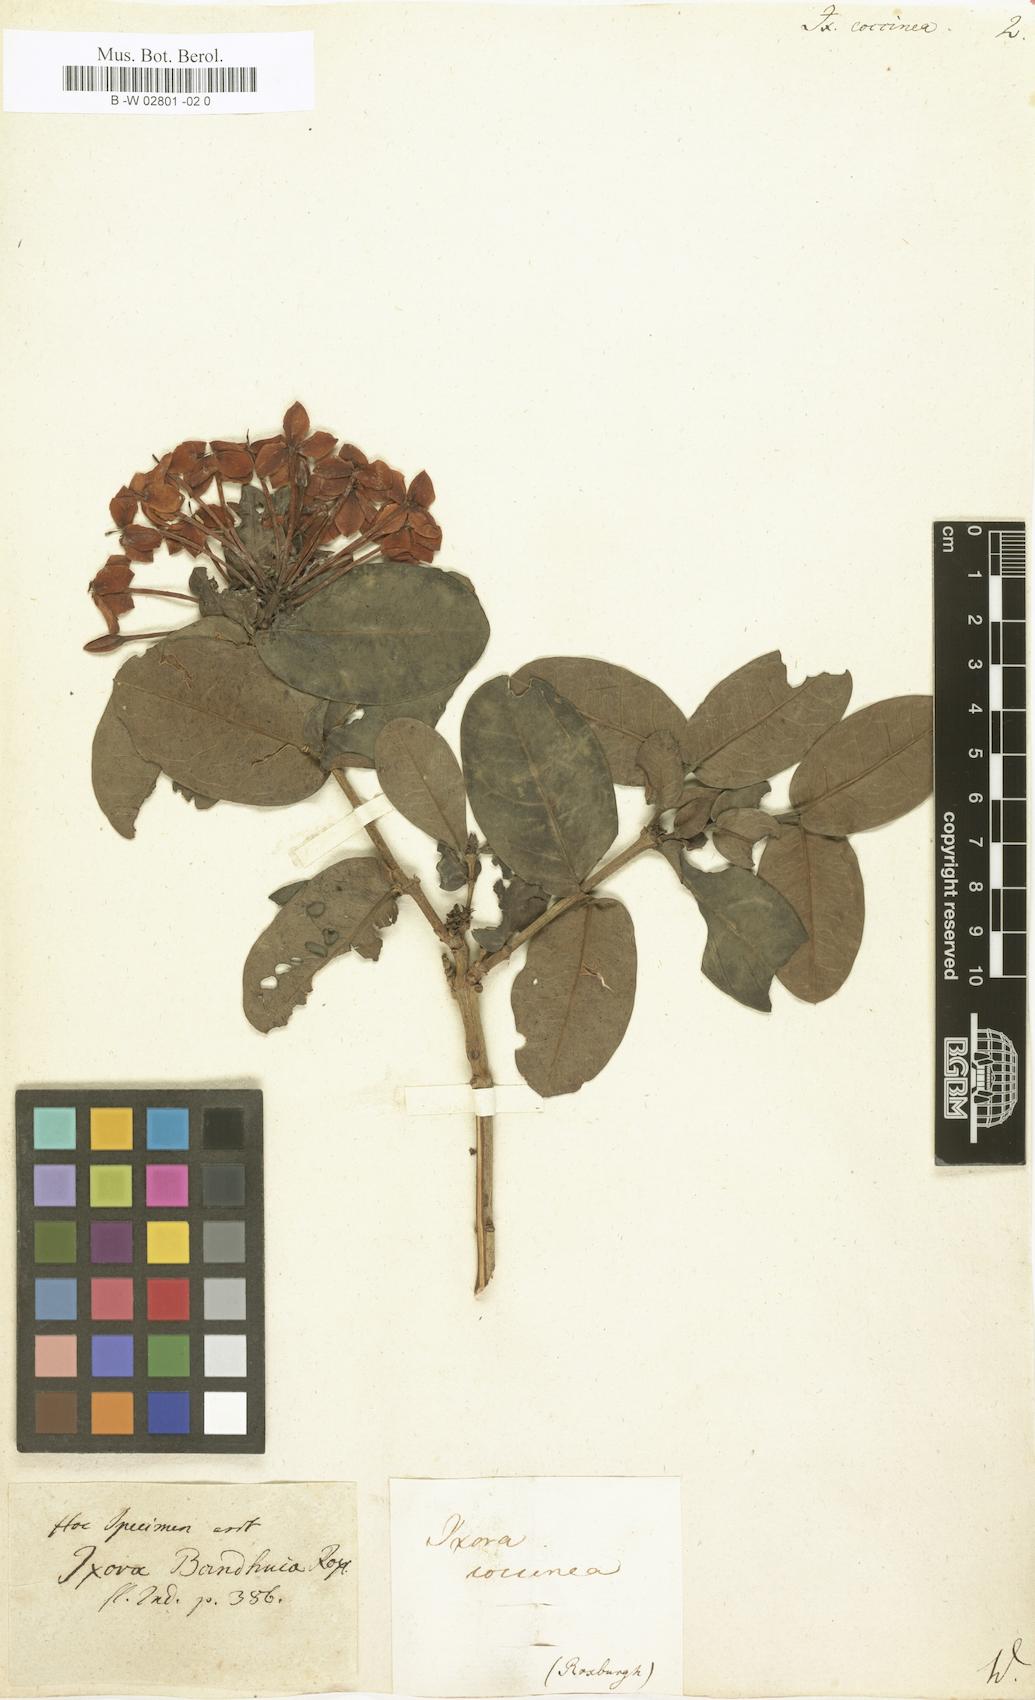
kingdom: Plantae
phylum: Tracheophyta
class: Magnoliopsida
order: Gentianales
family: Rubiaceae
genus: Ixora
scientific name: Ixora coccinea
